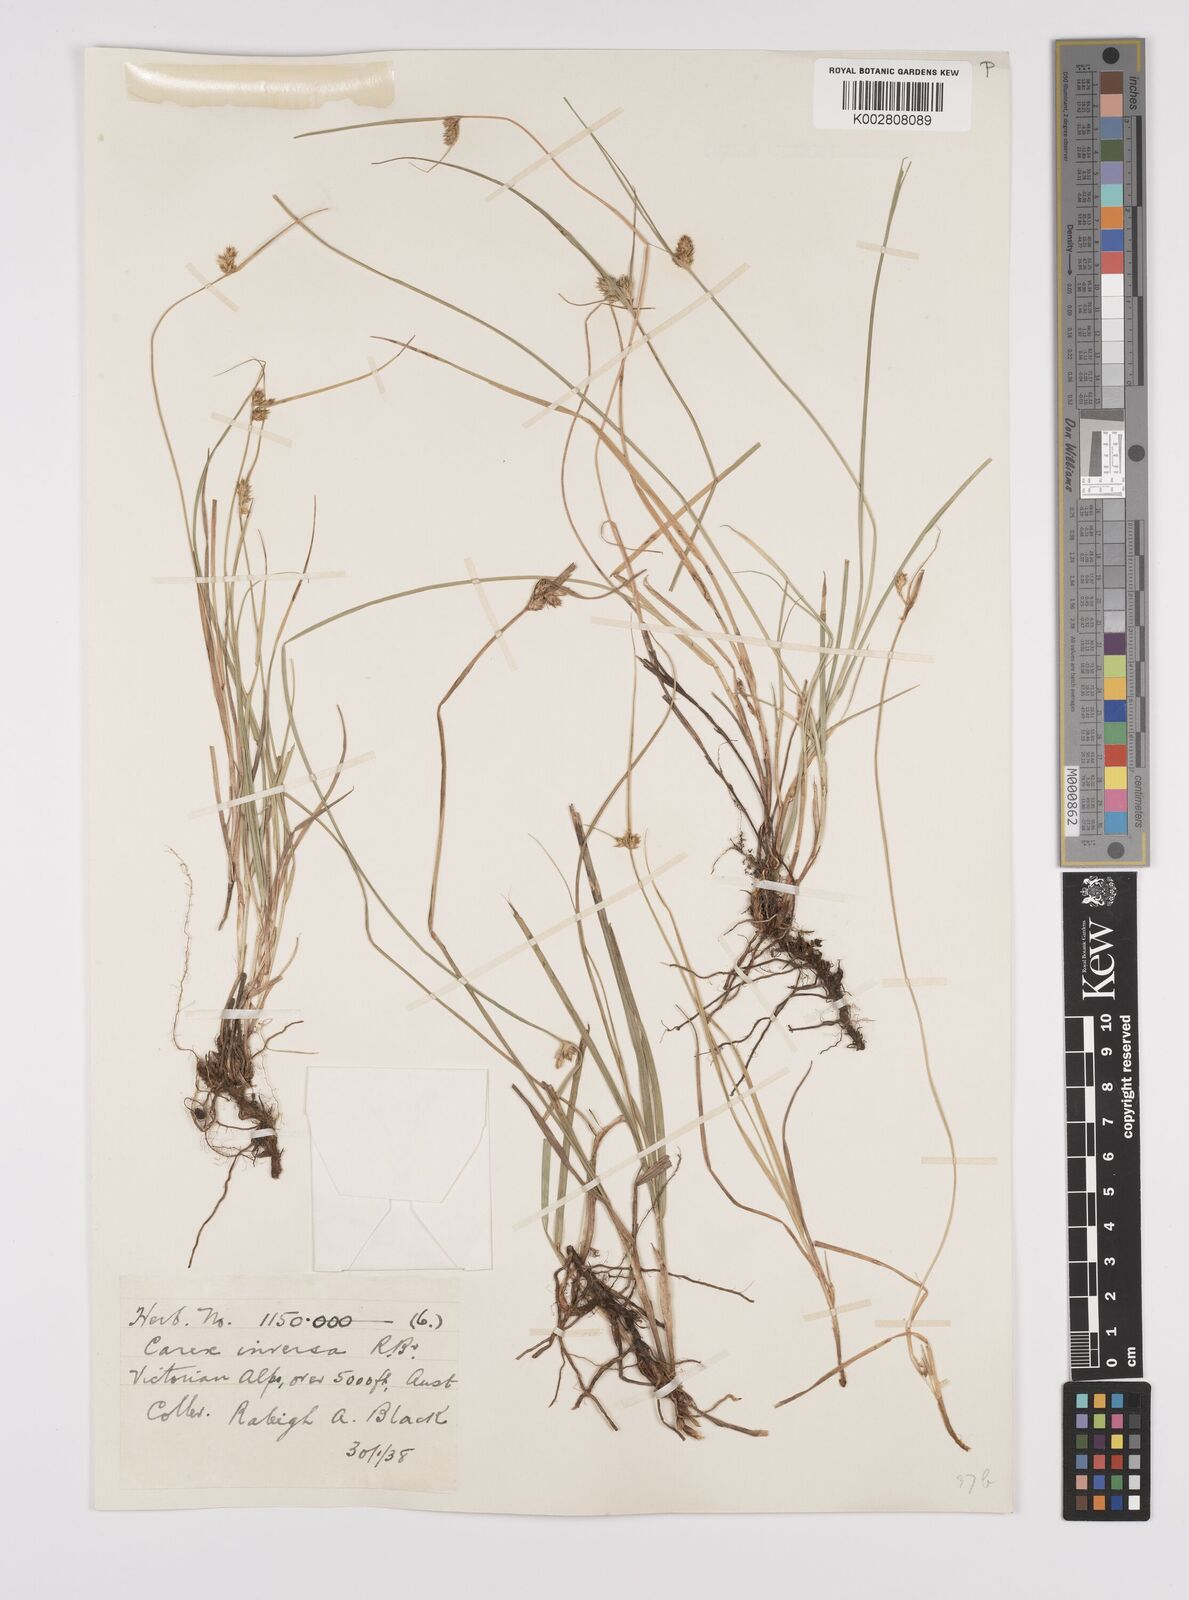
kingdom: Plantae
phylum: Tracheophyta
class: Liliopsida
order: Poales
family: Cyperaceae
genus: Carex
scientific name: Carex inversa
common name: Knob sedge
